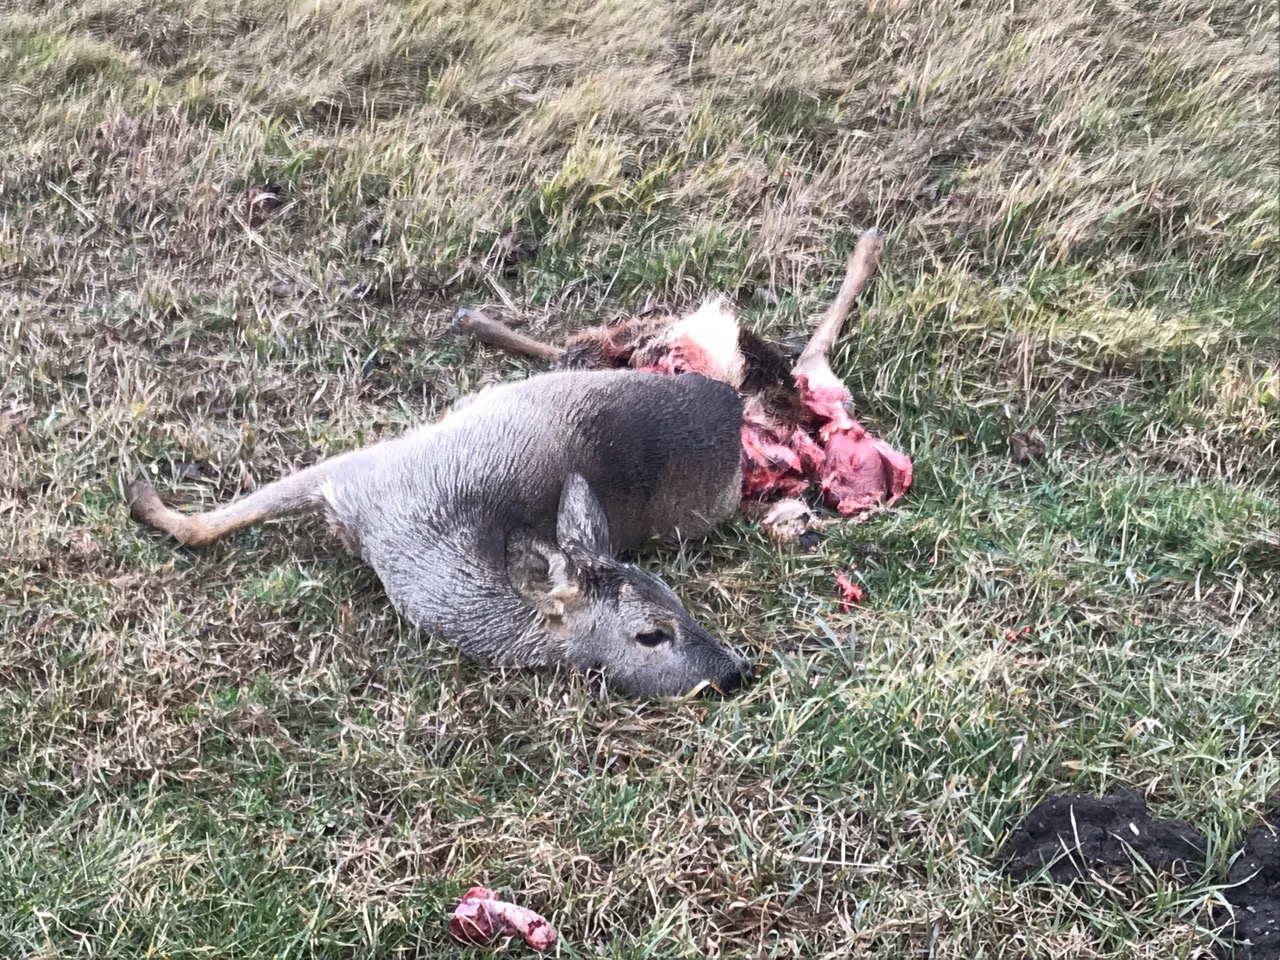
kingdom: Animalia
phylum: Chordata
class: Mammalia
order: Artiodactyla
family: Cervidae
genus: Capreolus
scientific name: Capreolus capreolus
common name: Western roe deer
